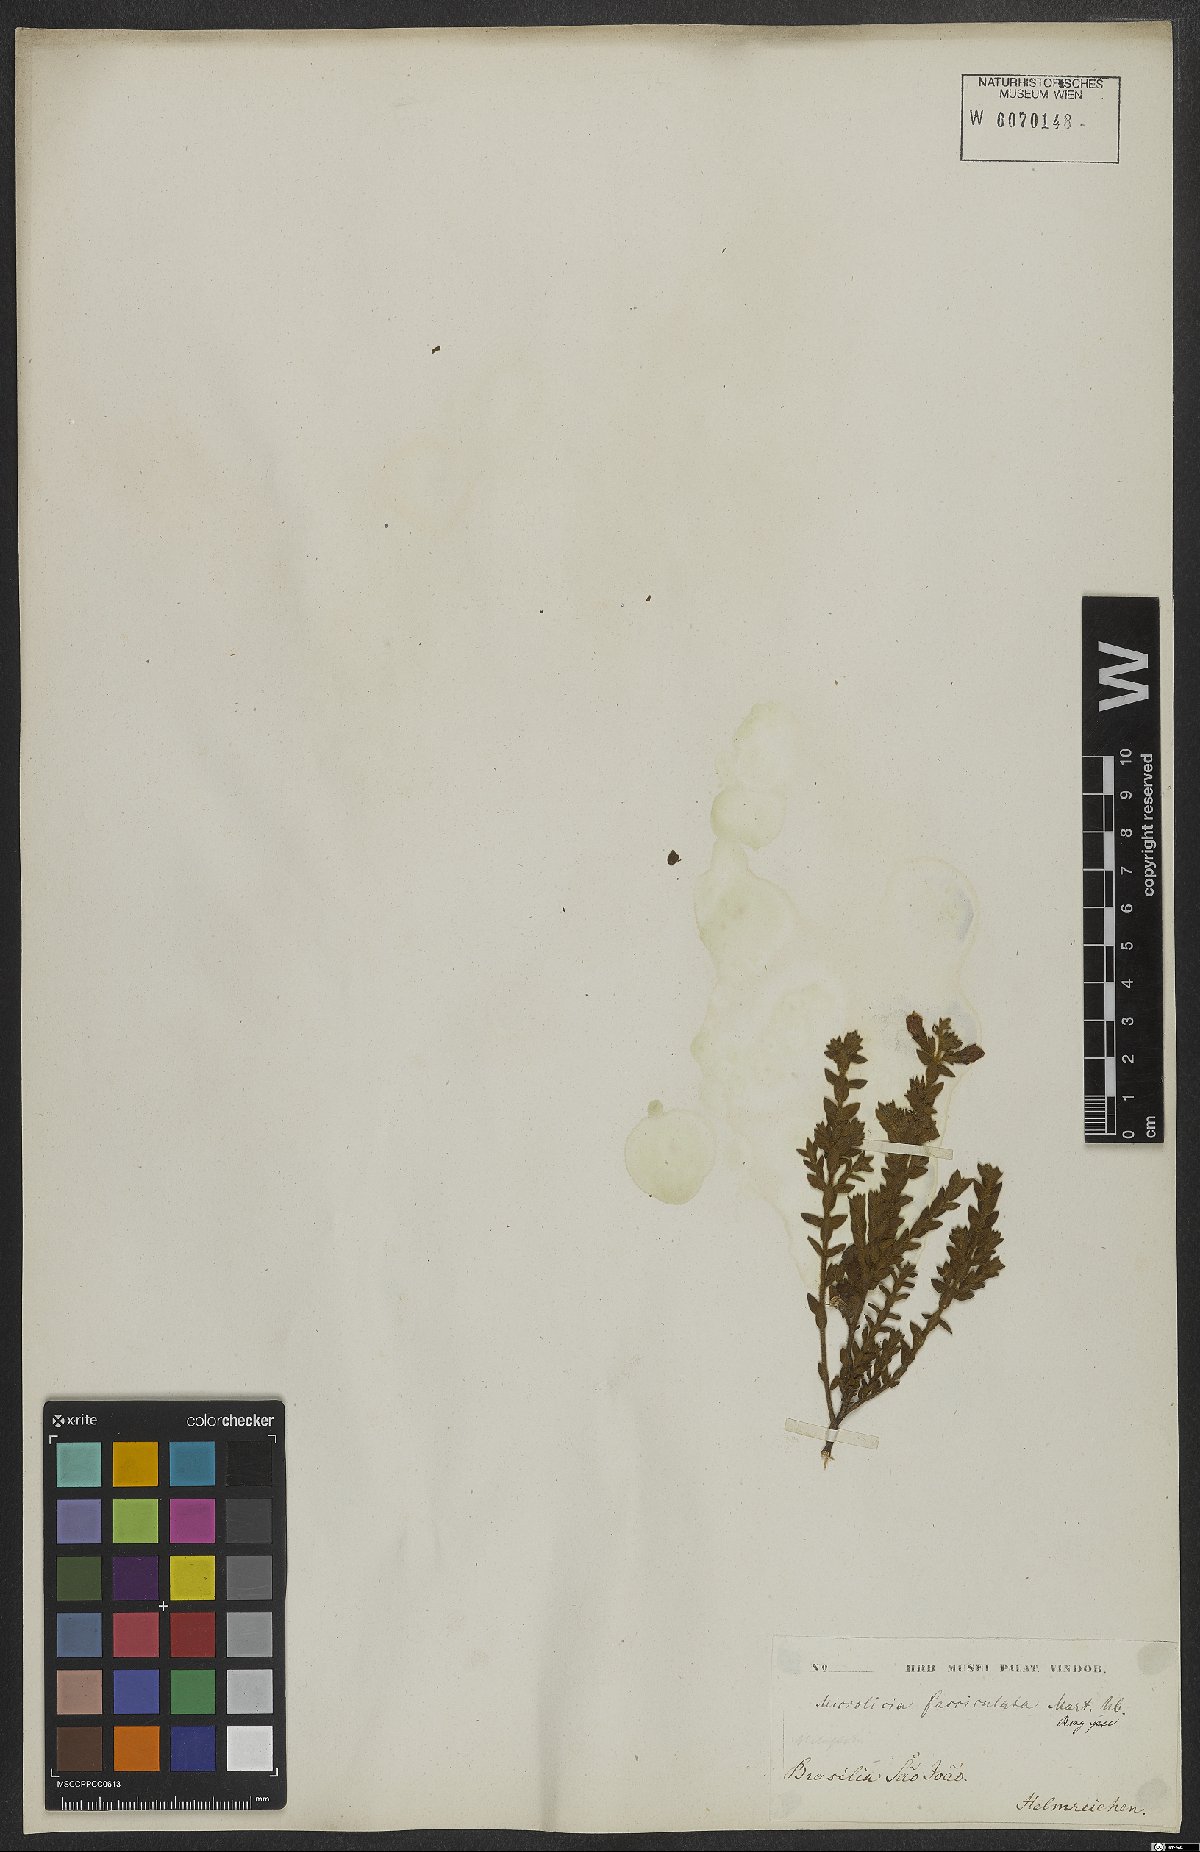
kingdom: Plantae
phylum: Tracheophyta
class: Magnoliopsida
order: Myrtales
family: Melastomataceae
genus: Microlicia
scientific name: Microlicia fasciculata
